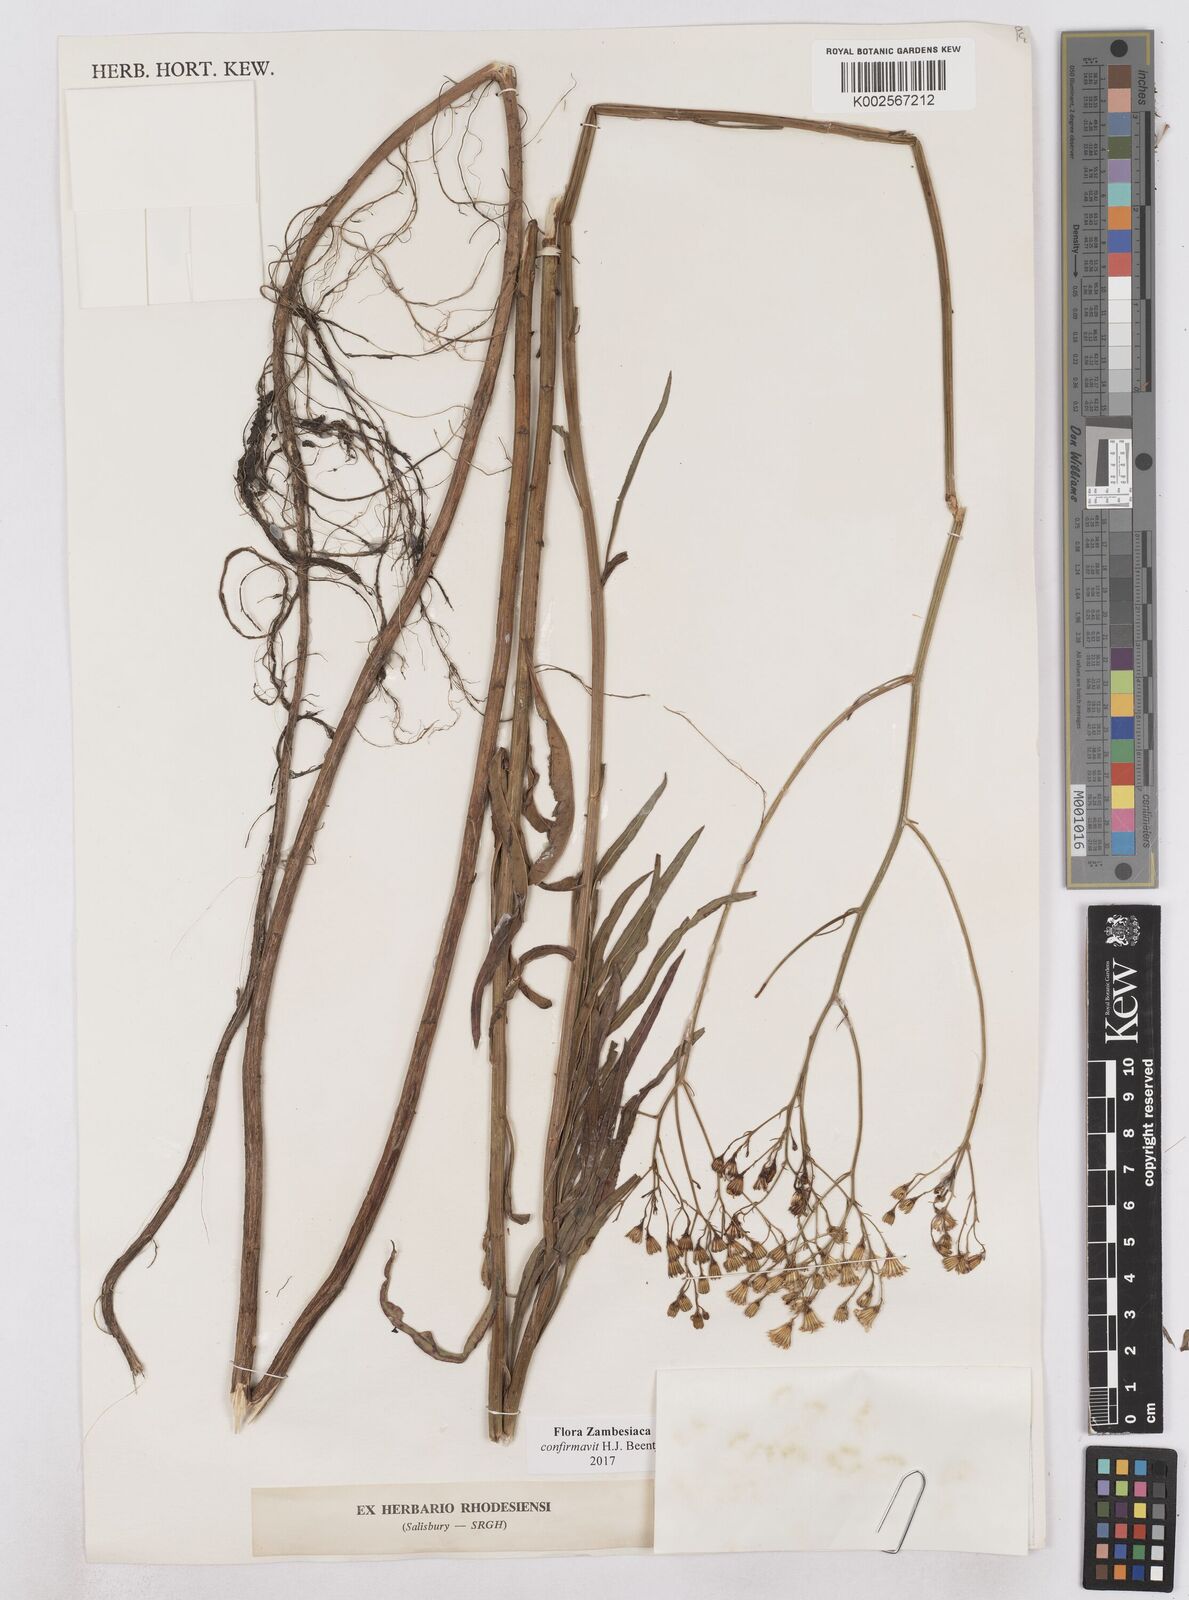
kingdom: Plantae
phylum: Tracheophyta
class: Magnoliopsida
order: Asterales
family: Asteraceae
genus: Senecio
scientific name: Senecio strictifolius
